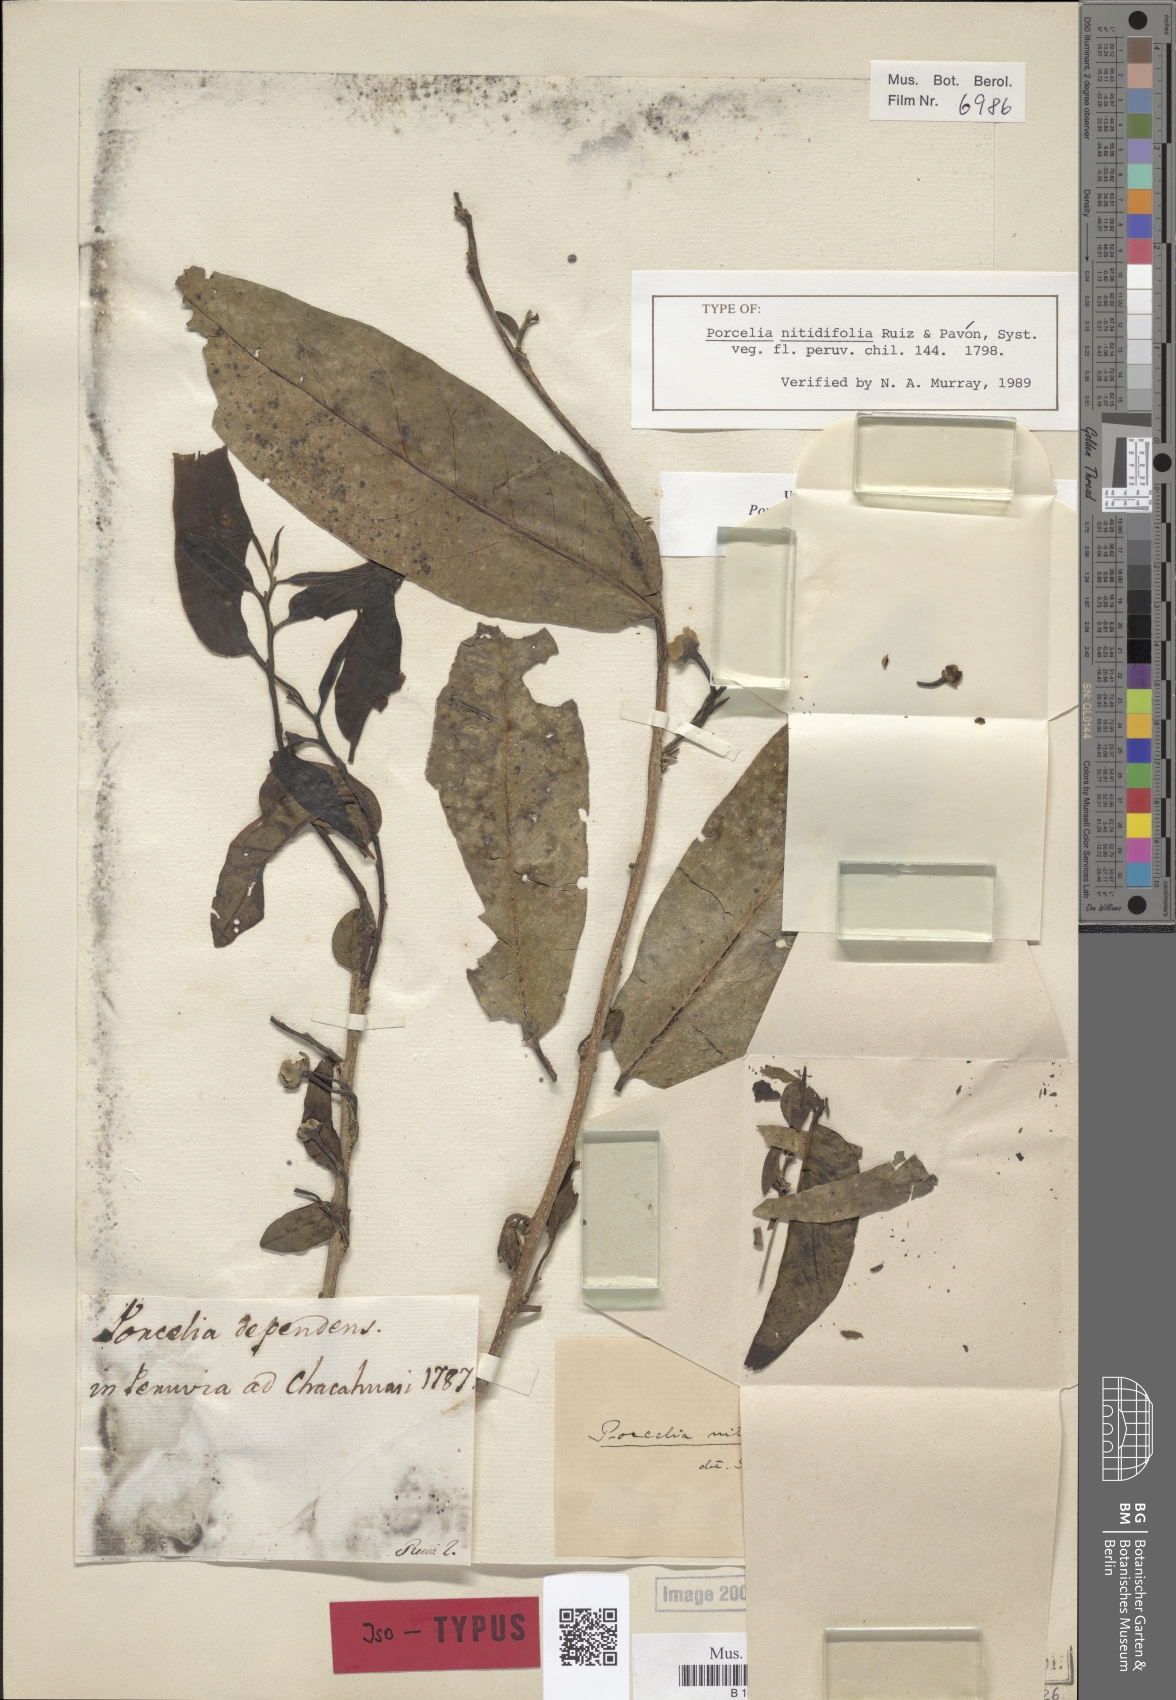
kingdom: Plantae
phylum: Tracheophyta
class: Magnoliopsida
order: Magnoliales
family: Annonaceae
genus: Porcelia
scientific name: Porcelia nitidifolia
